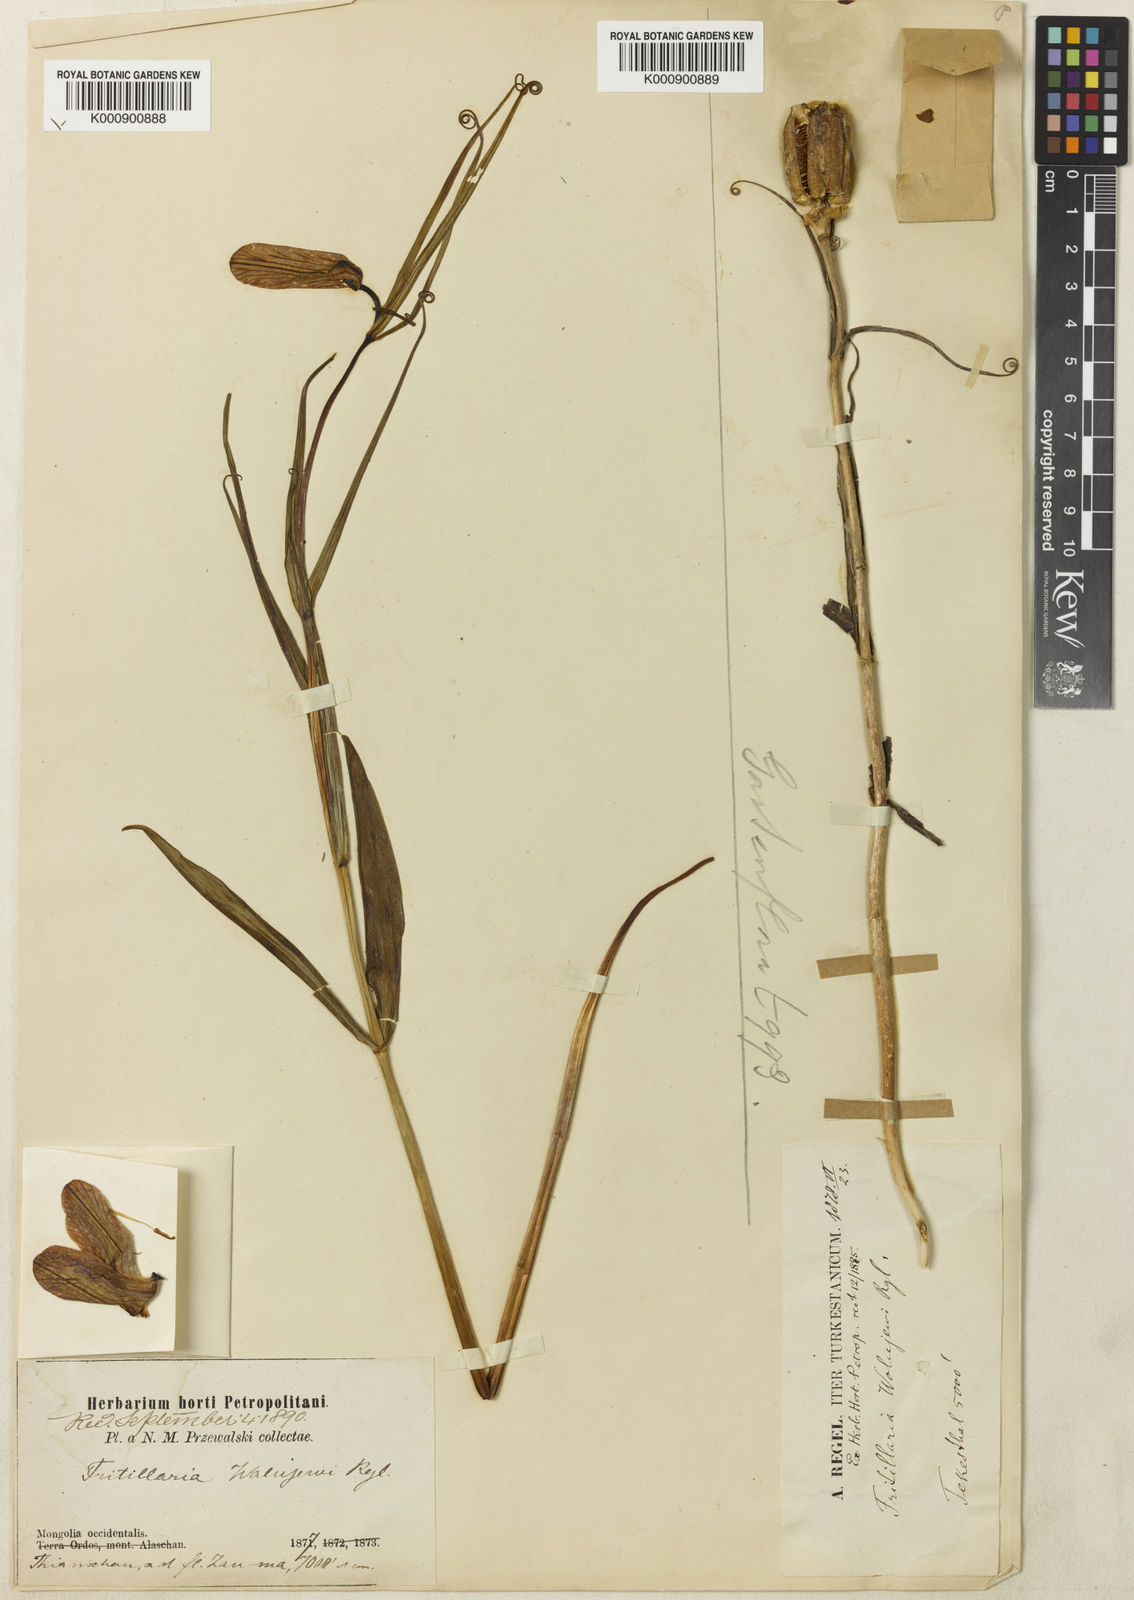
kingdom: Plantae
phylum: Tracheophyta
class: Liliopsida
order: Liliales
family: Liliaceae
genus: Fritillaria
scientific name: Fritillaria walujewii
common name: Sinkiang fritillaria
